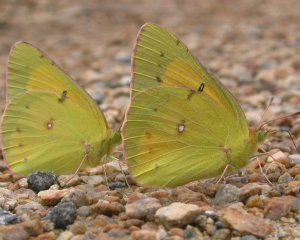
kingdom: Animalia
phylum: Arthropoda
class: Insecta
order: Lepidoptera
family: Pieridae
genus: Colias
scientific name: Colias eurytheme
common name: Orange Sulphur
